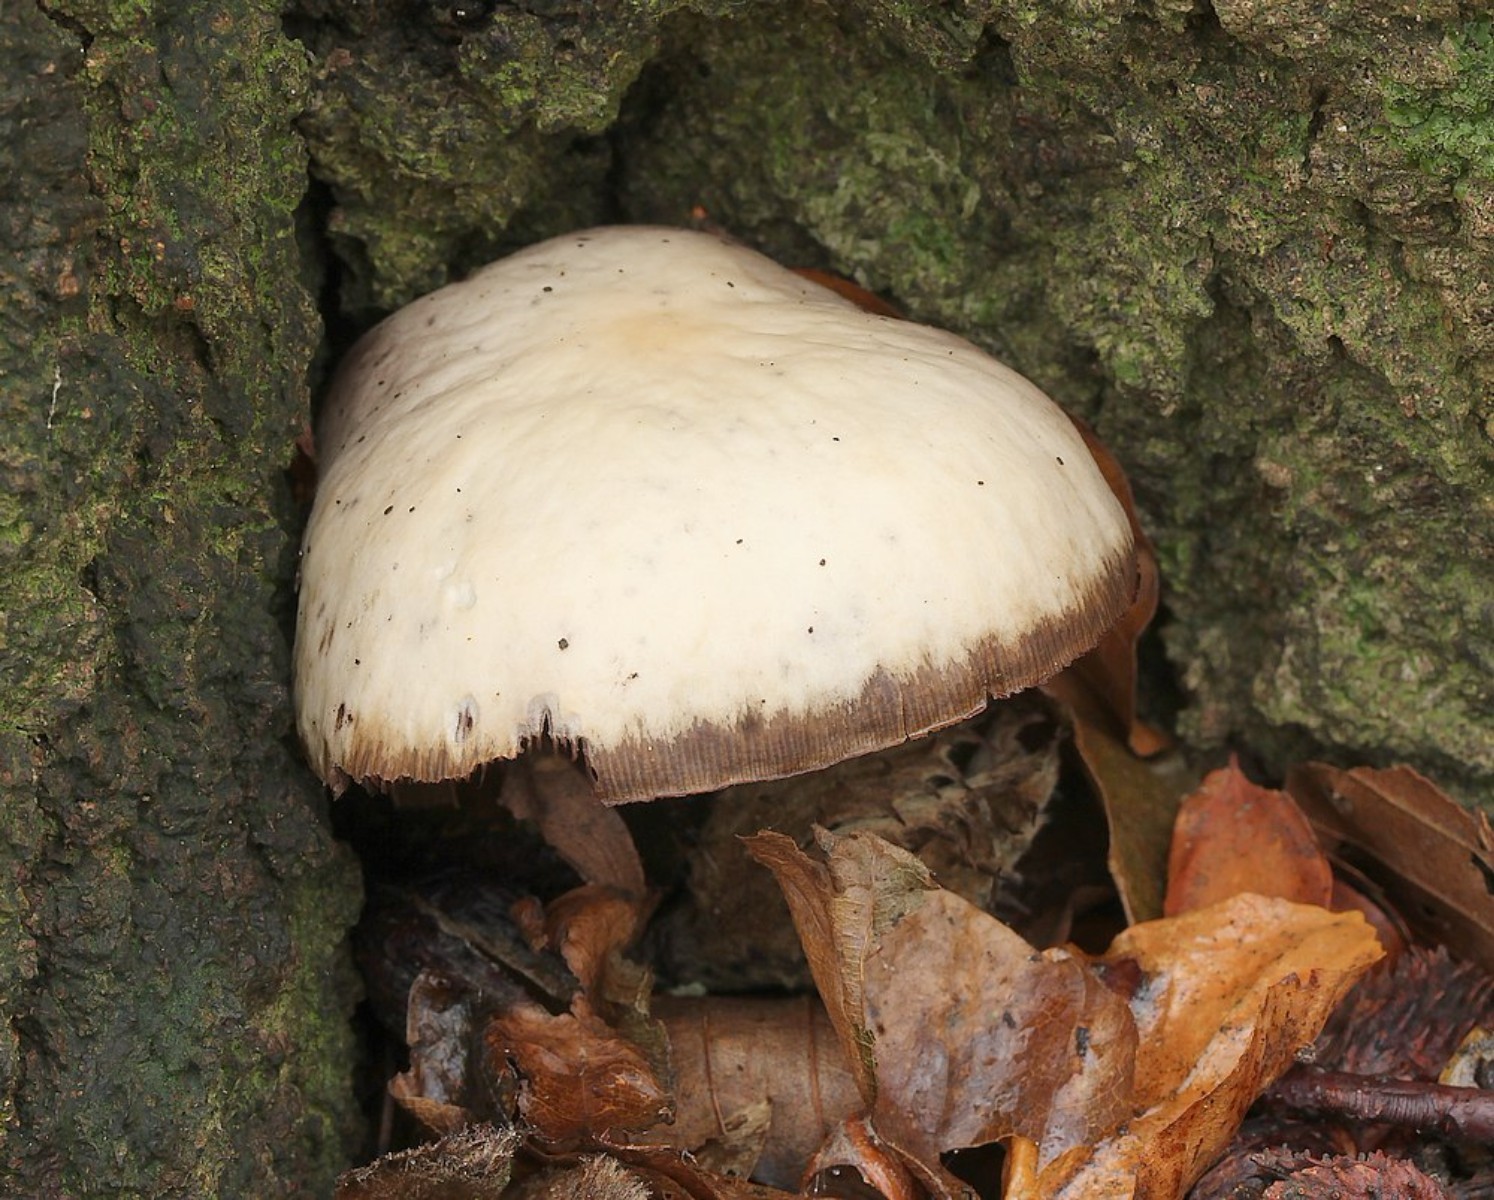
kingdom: Fungi
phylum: Basidiomycota
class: Agaricomycetes
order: Agaricales
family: Psathyrellaceae
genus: Homophron
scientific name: Homophron
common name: mørkhat
